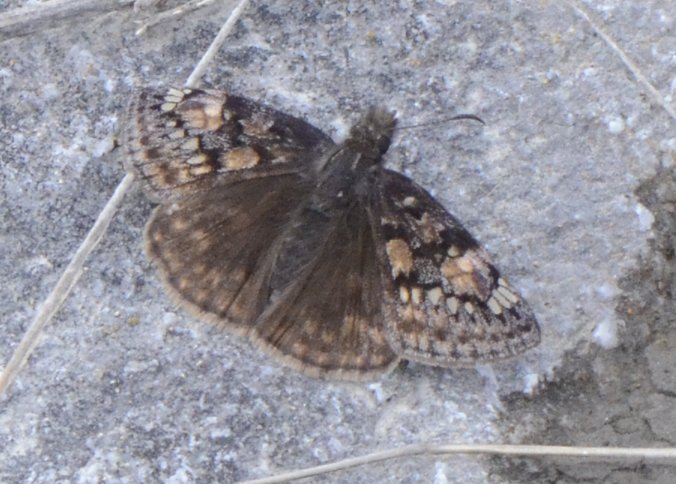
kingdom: Animalia
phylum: Arthropoda
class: Insecta
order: Lepidoptera
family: Hesperiidae
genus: Gesta
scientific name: Gesta
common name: Juvenal's Duskywing
